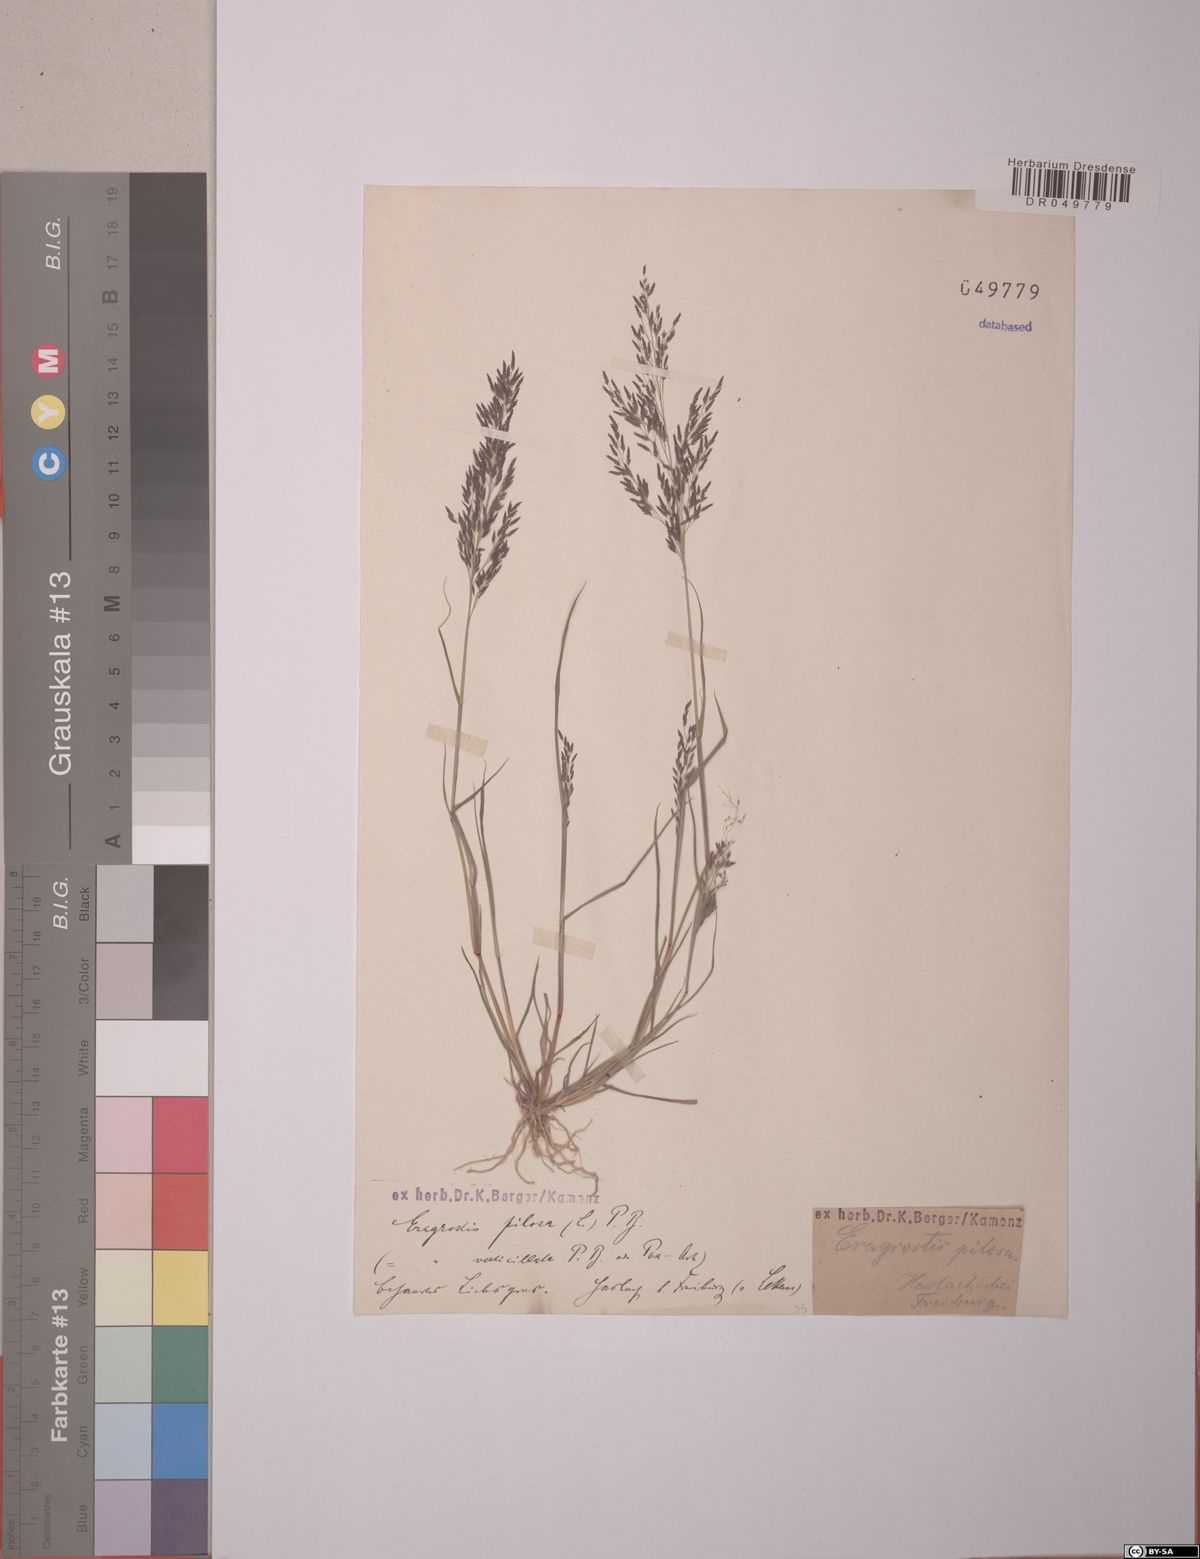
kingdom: Plantae
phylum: Tracheophyta
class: Liliopsida
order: Poales
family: Poaceae
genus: Eragrostis
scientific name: Eragrostis pilosa
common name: Indian lovegrass
